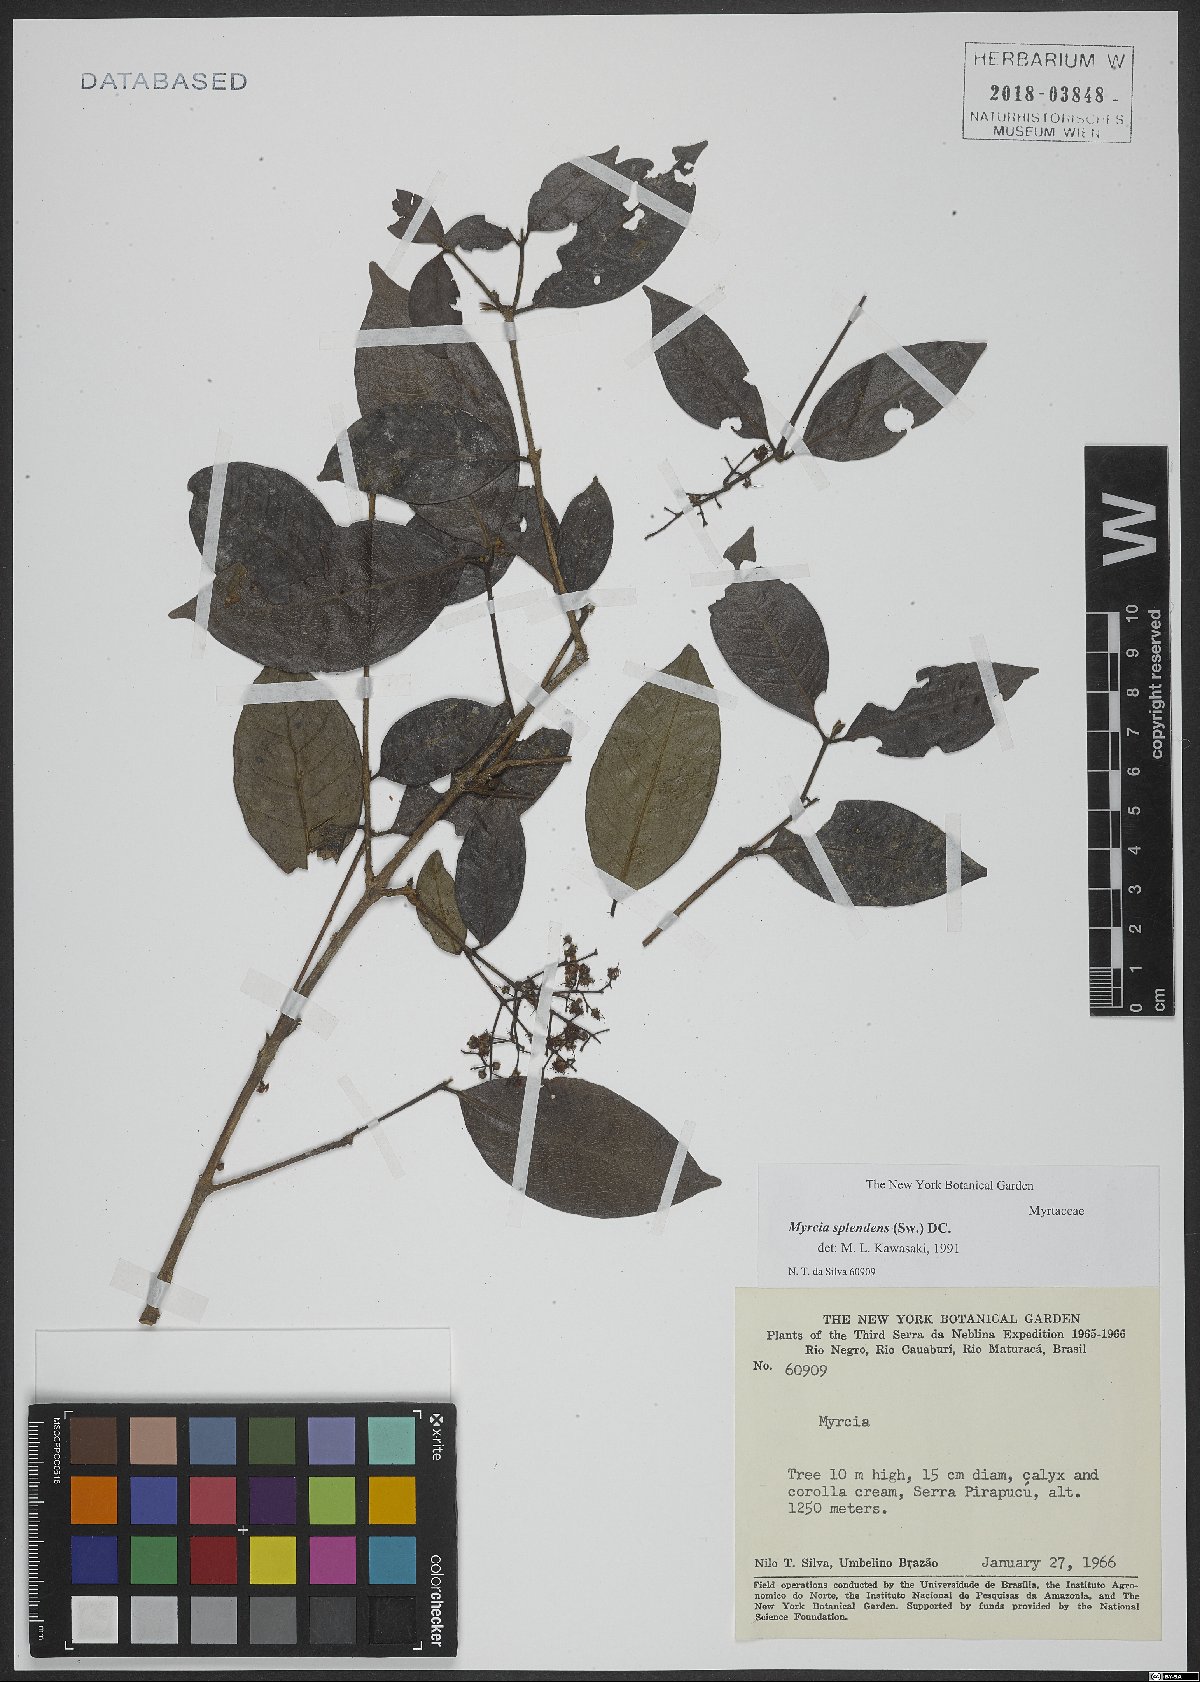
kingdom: Plantae
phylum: Tracheophyta
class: Magnoliopsida
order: Myrtales
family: Myrtaceae
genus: Myrcia
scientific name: Myrcia splendens
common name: Surinam cherry
